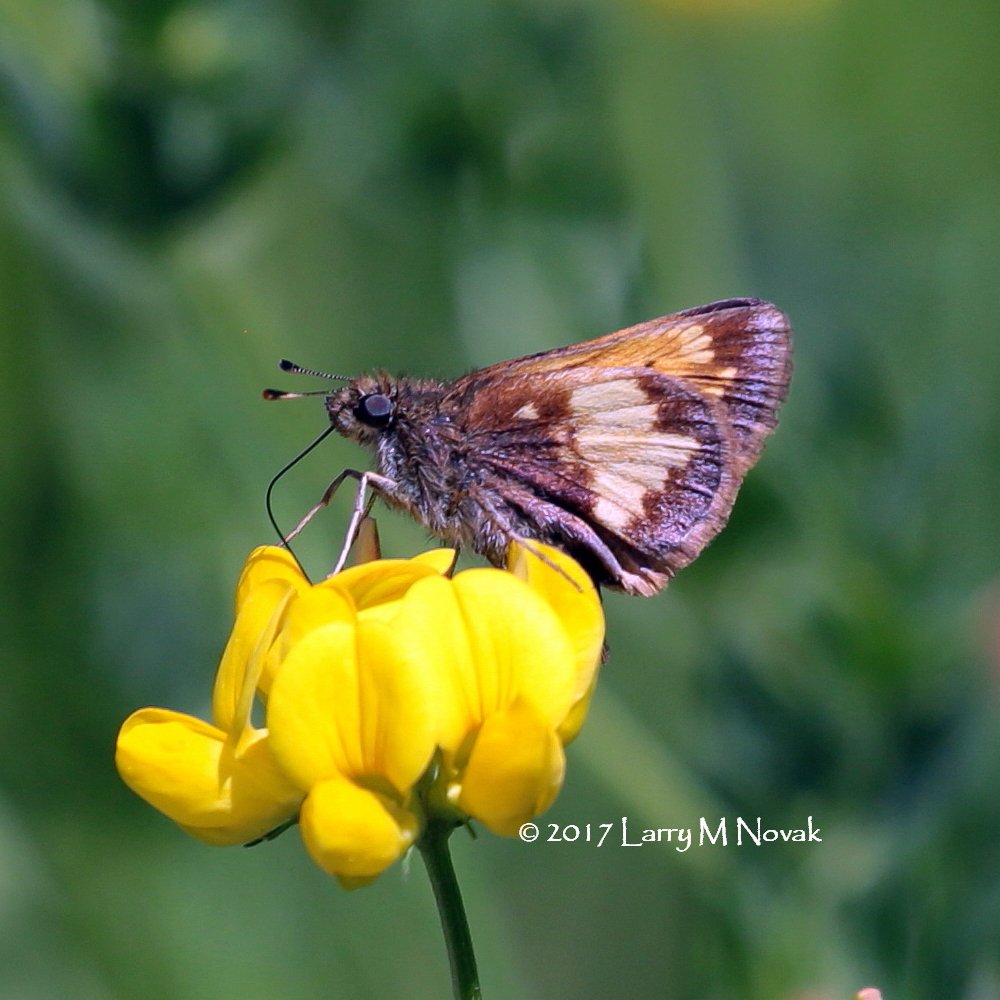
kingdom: Animalia
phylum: Arthropoda
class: Insecta
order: Lepidoptera
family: Hesperiidae
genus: Lon
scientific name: Lon hobomok
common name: Hobomok Skipper
